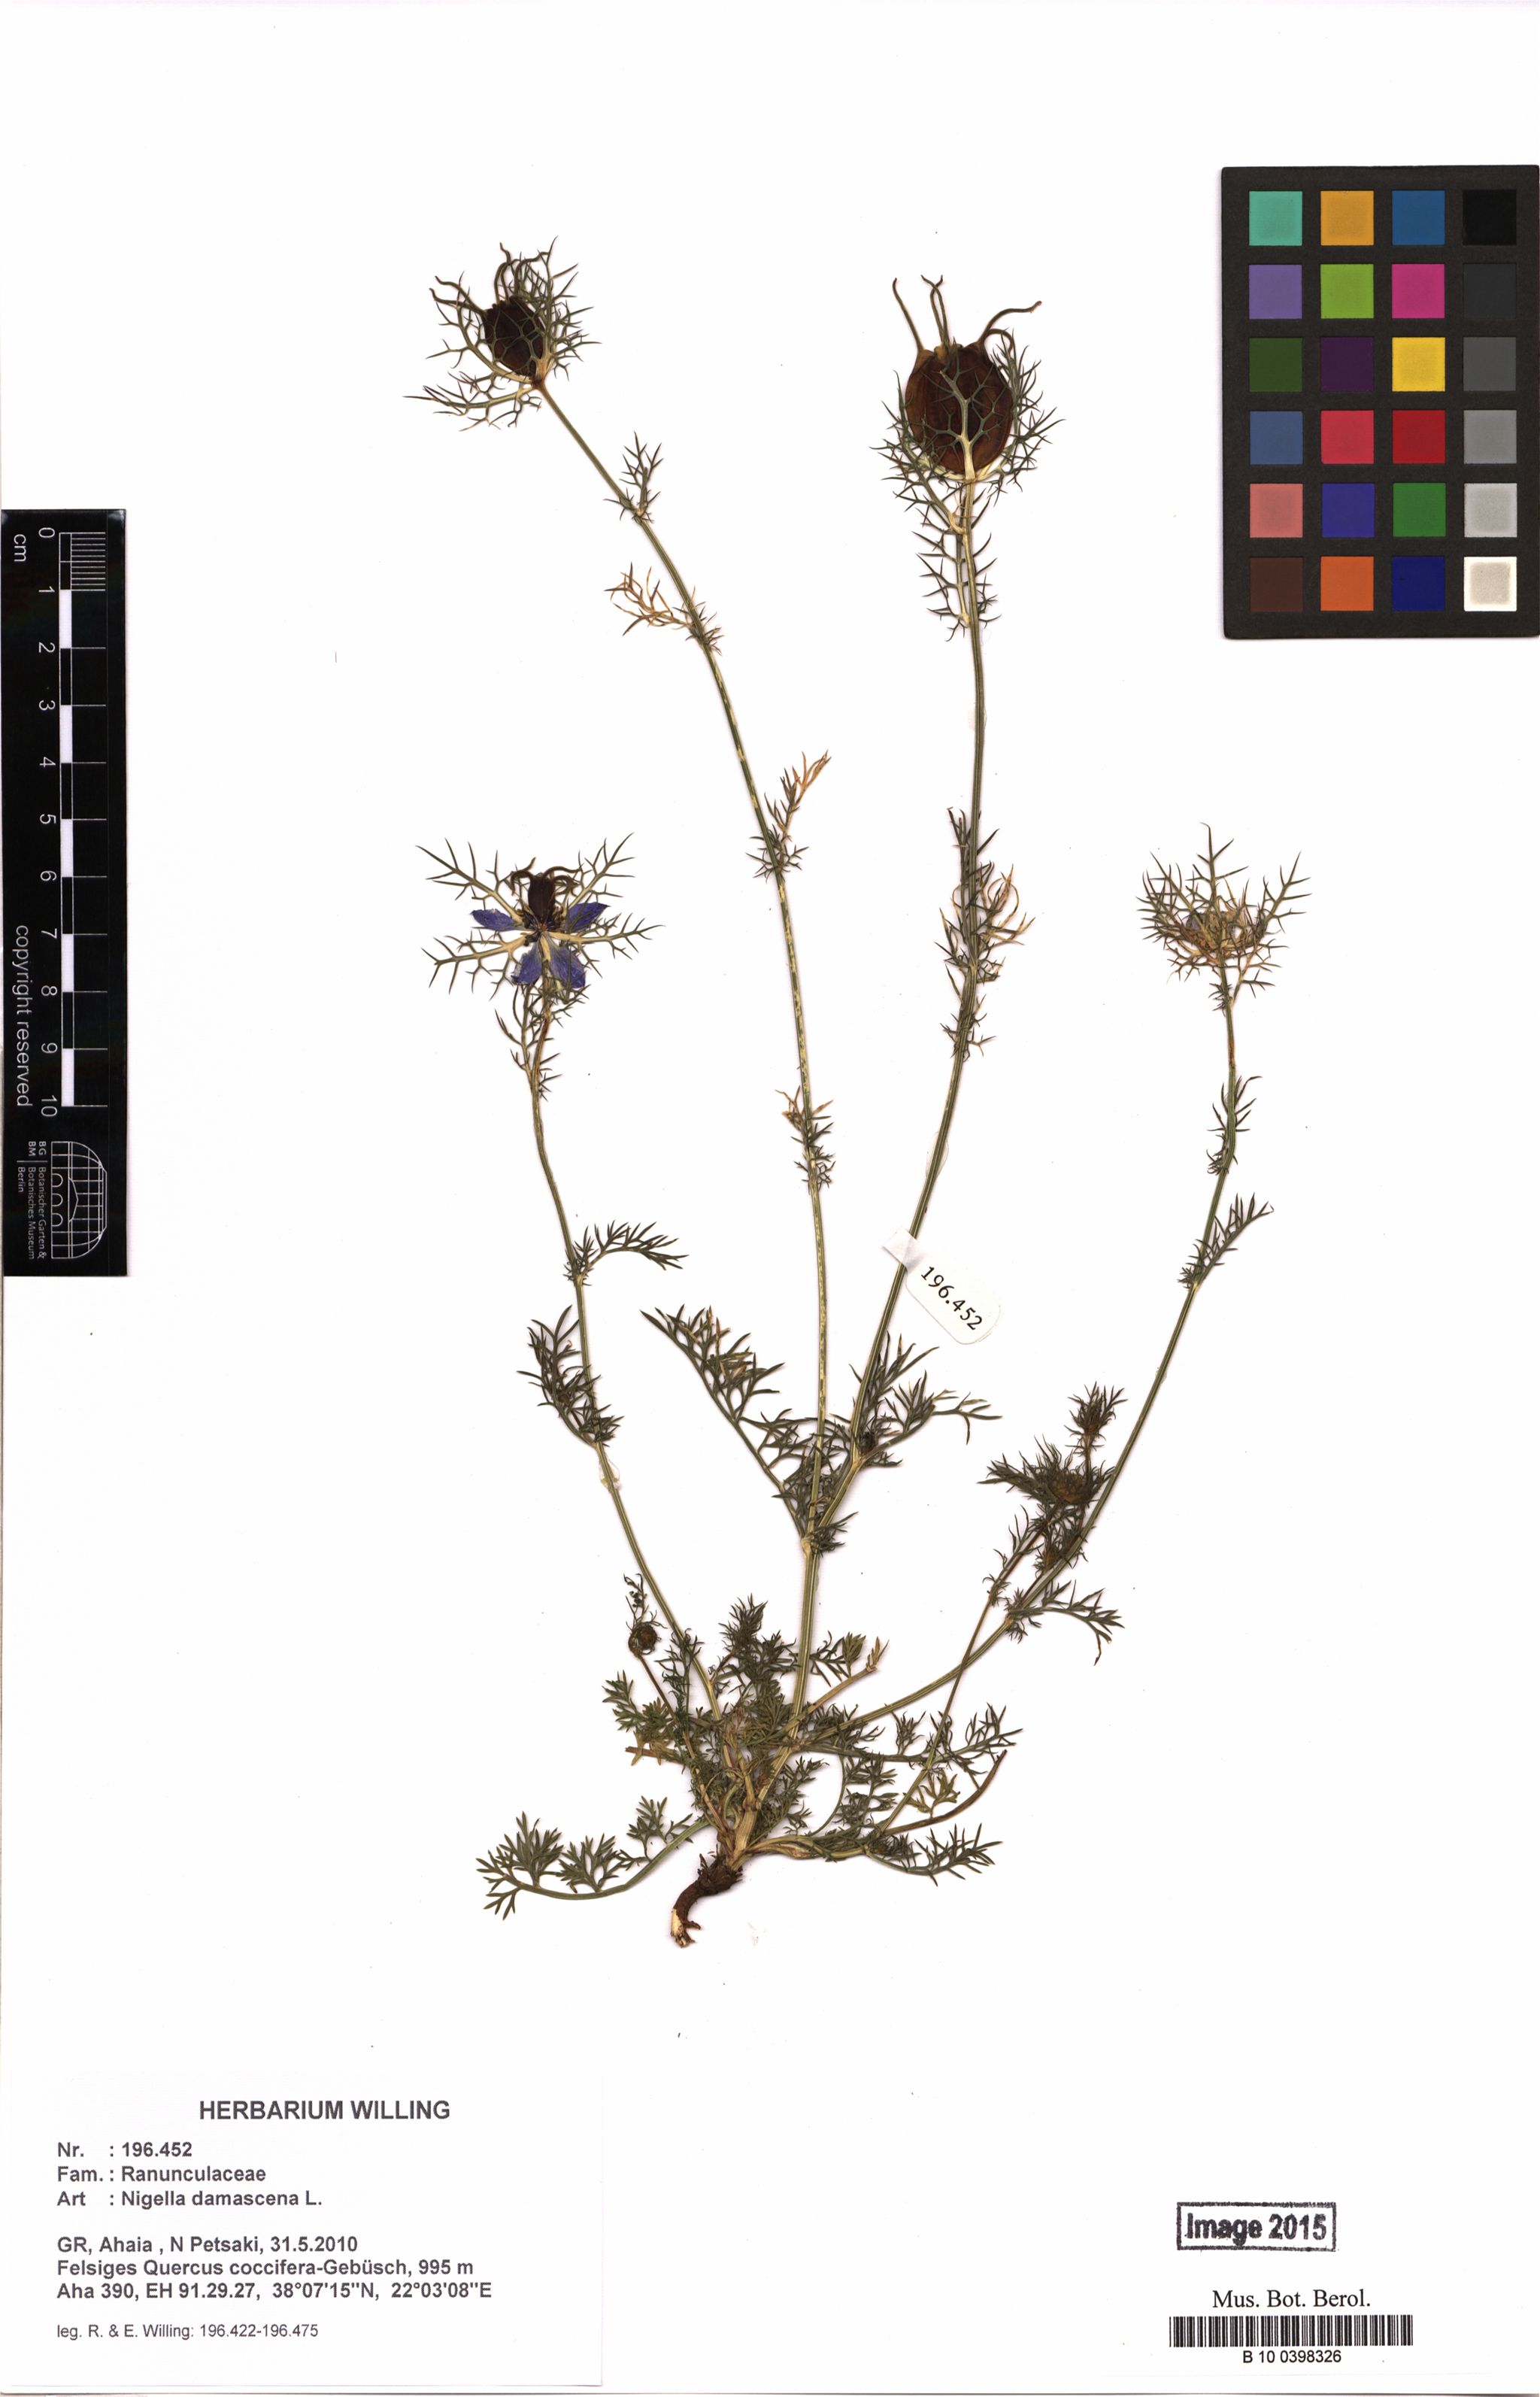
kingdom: Plantae
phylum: Tracheophyta
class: Magnoliopsida
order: Ranunculales
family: Ranunculaceae
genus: Nigella
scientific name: Nigella damascena
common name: Love-in-a-mist
